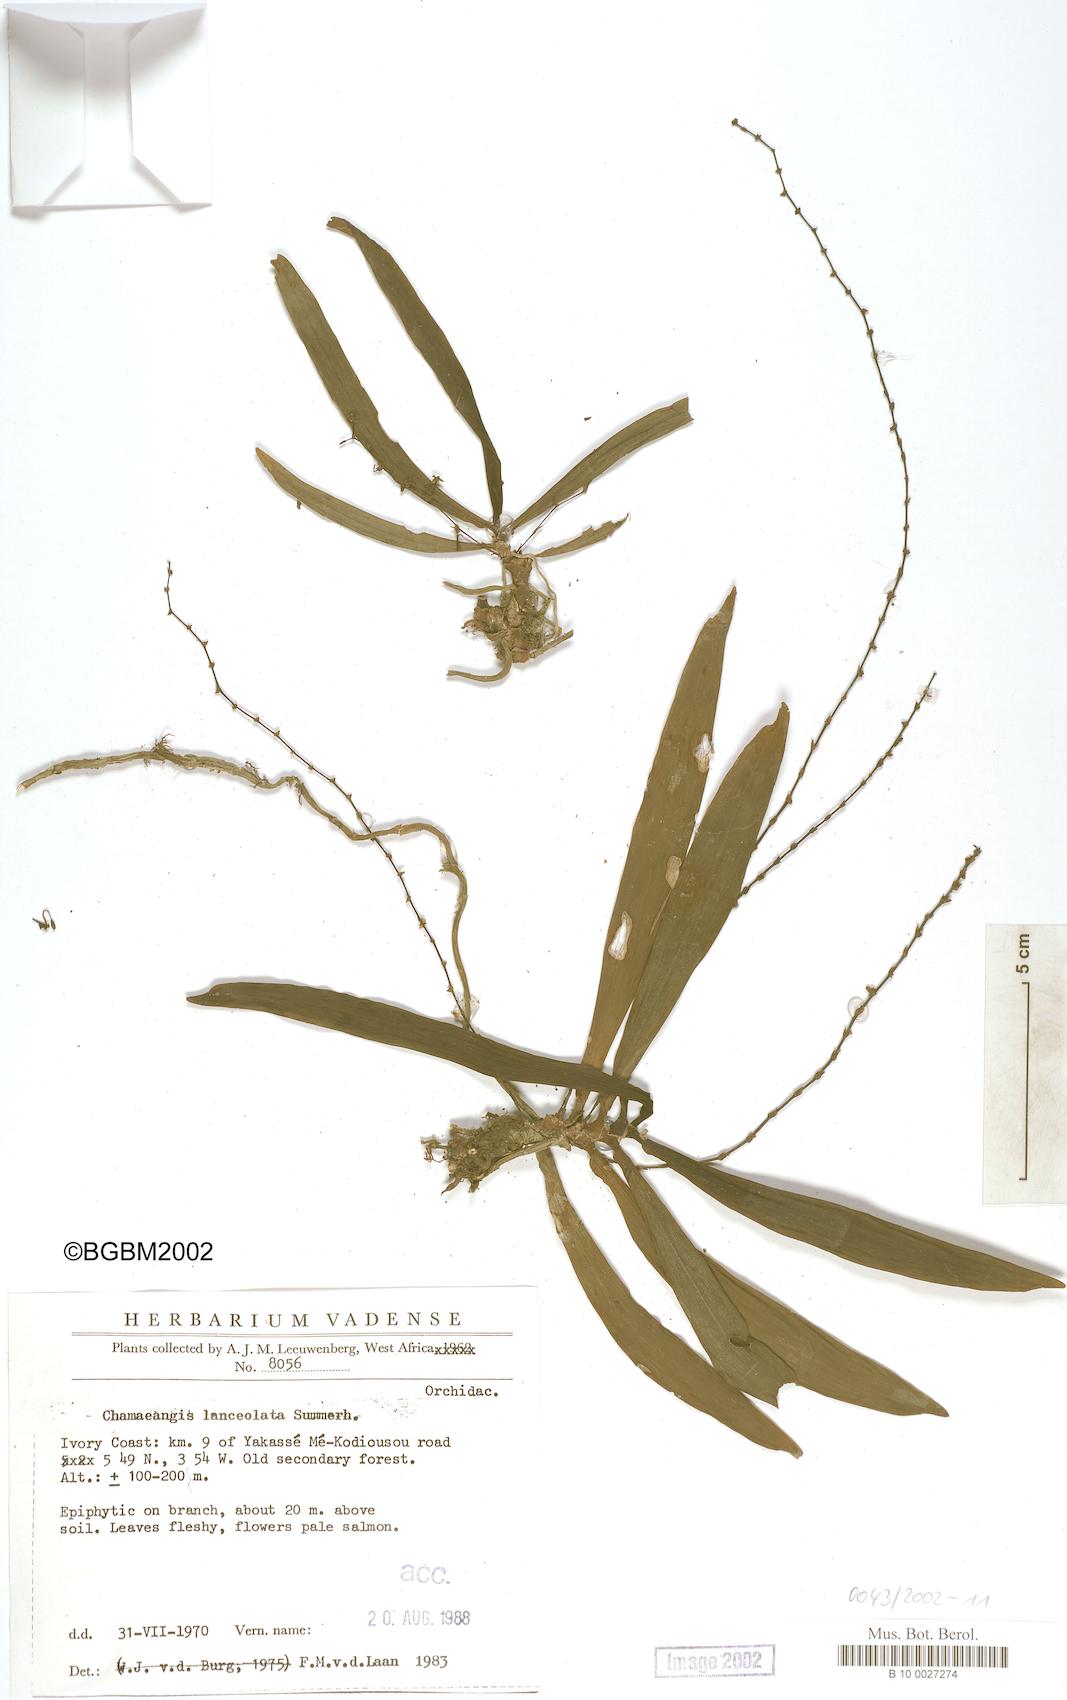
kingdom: Plantae
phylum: Tracheophyta
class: Liliopsida
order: Asparagales
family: Orchidaceae
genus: Diaphananthe
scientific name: Diaphananthe lanceolata
